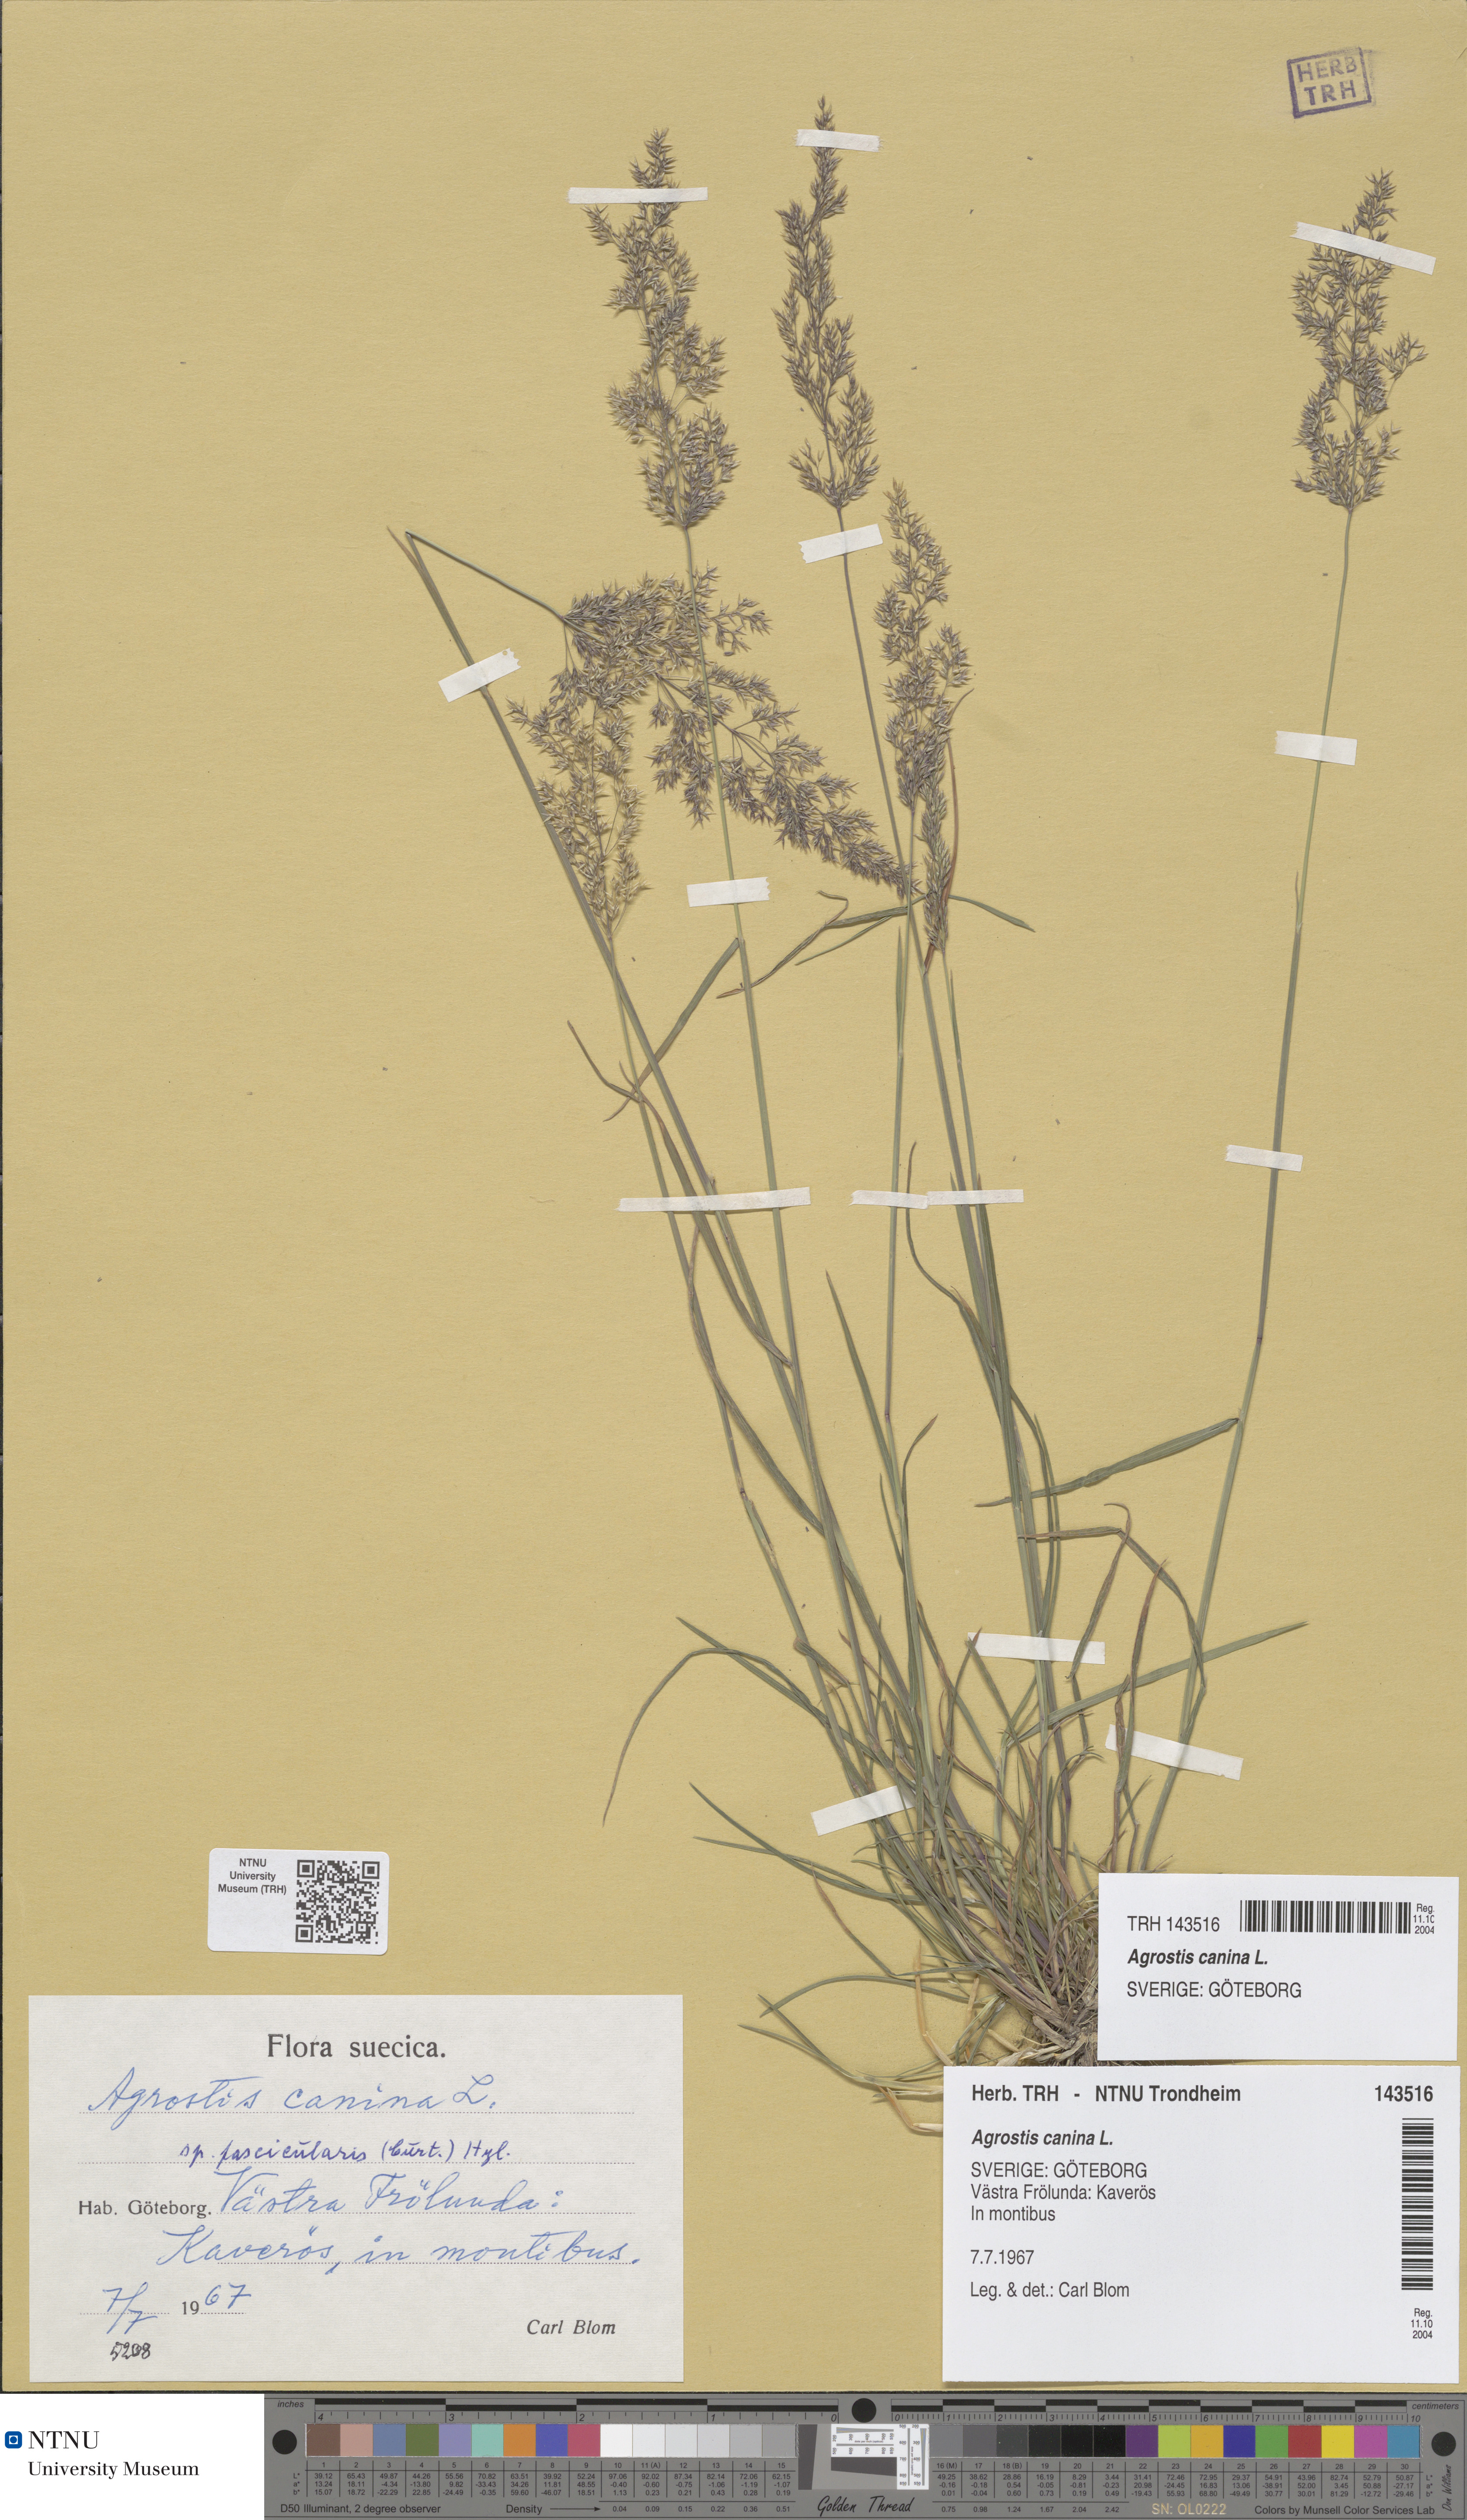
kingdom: Plantae
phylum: Tracheophyta
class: Liliopsida
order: Poales
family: Poaceae
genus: Agrostis
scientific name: Agrostis canina
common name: Velvet bent
